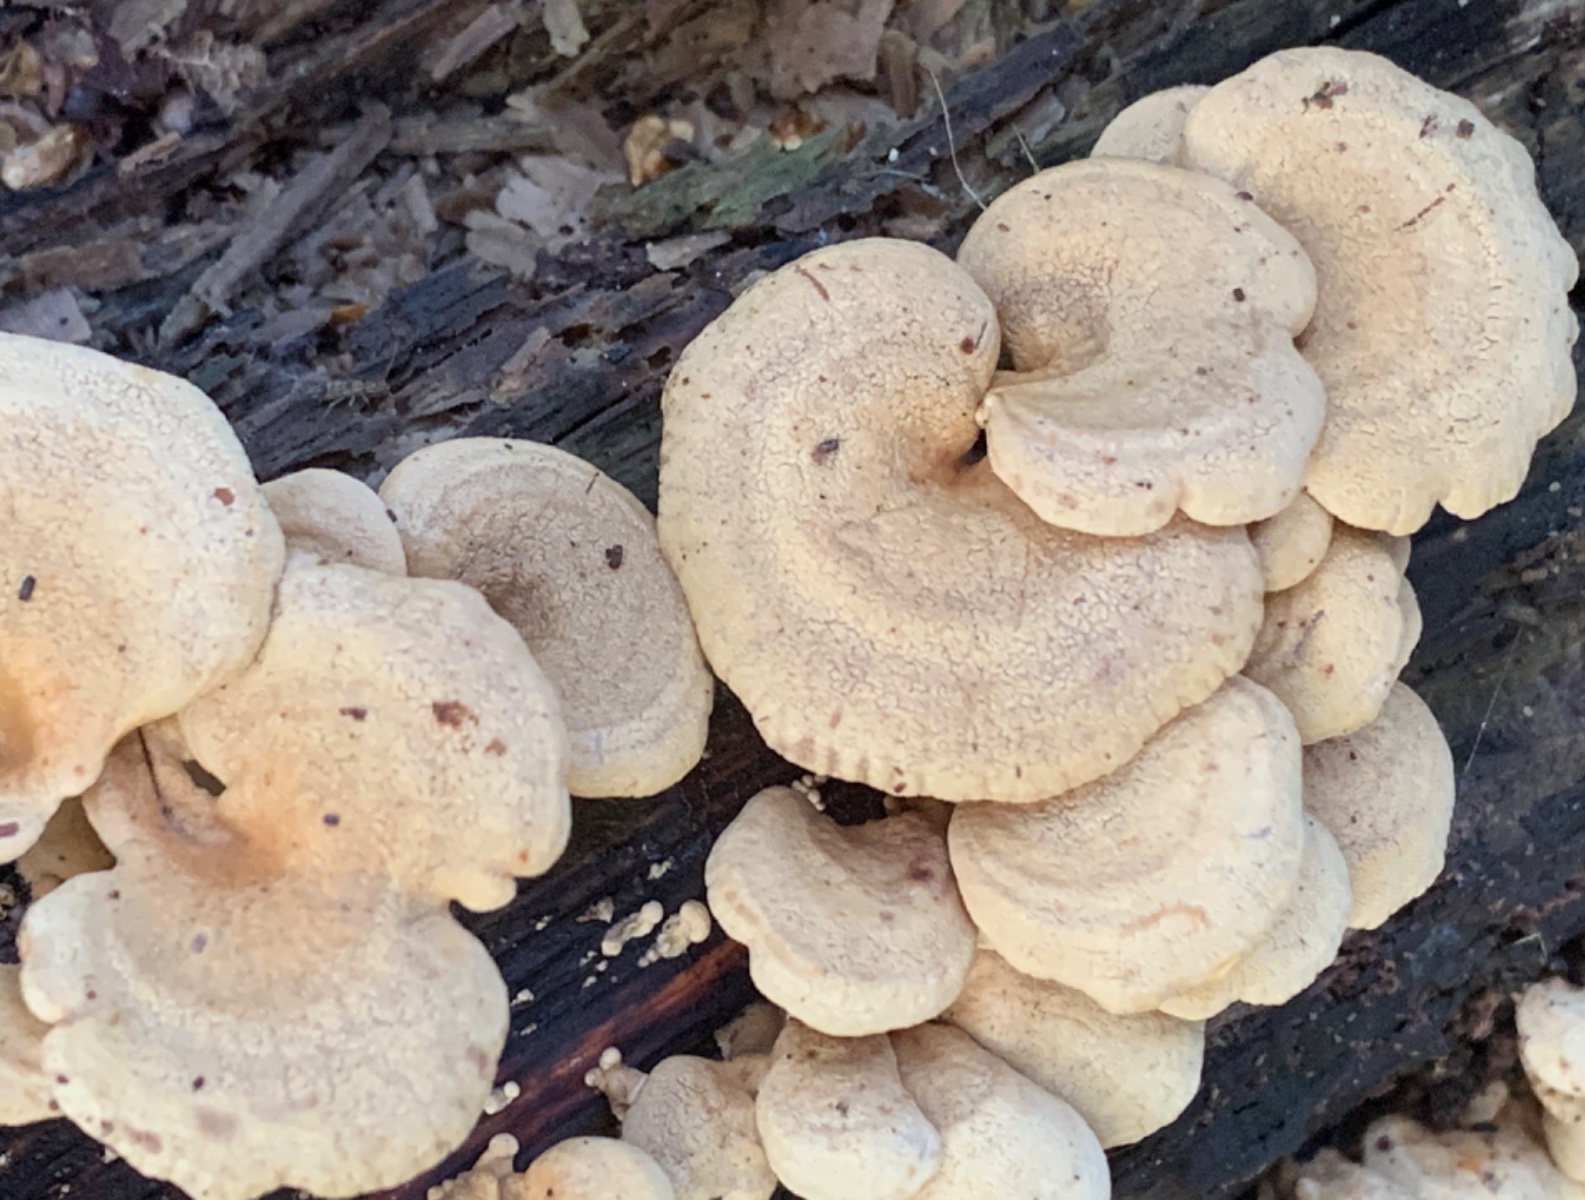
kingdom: Fungi
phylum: Basidiomycota
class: Agaricomycetes
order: Agaricales
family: Mycenaceae
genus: Panellus
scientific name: Panellus stipticus
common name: kliddet epaulethat
